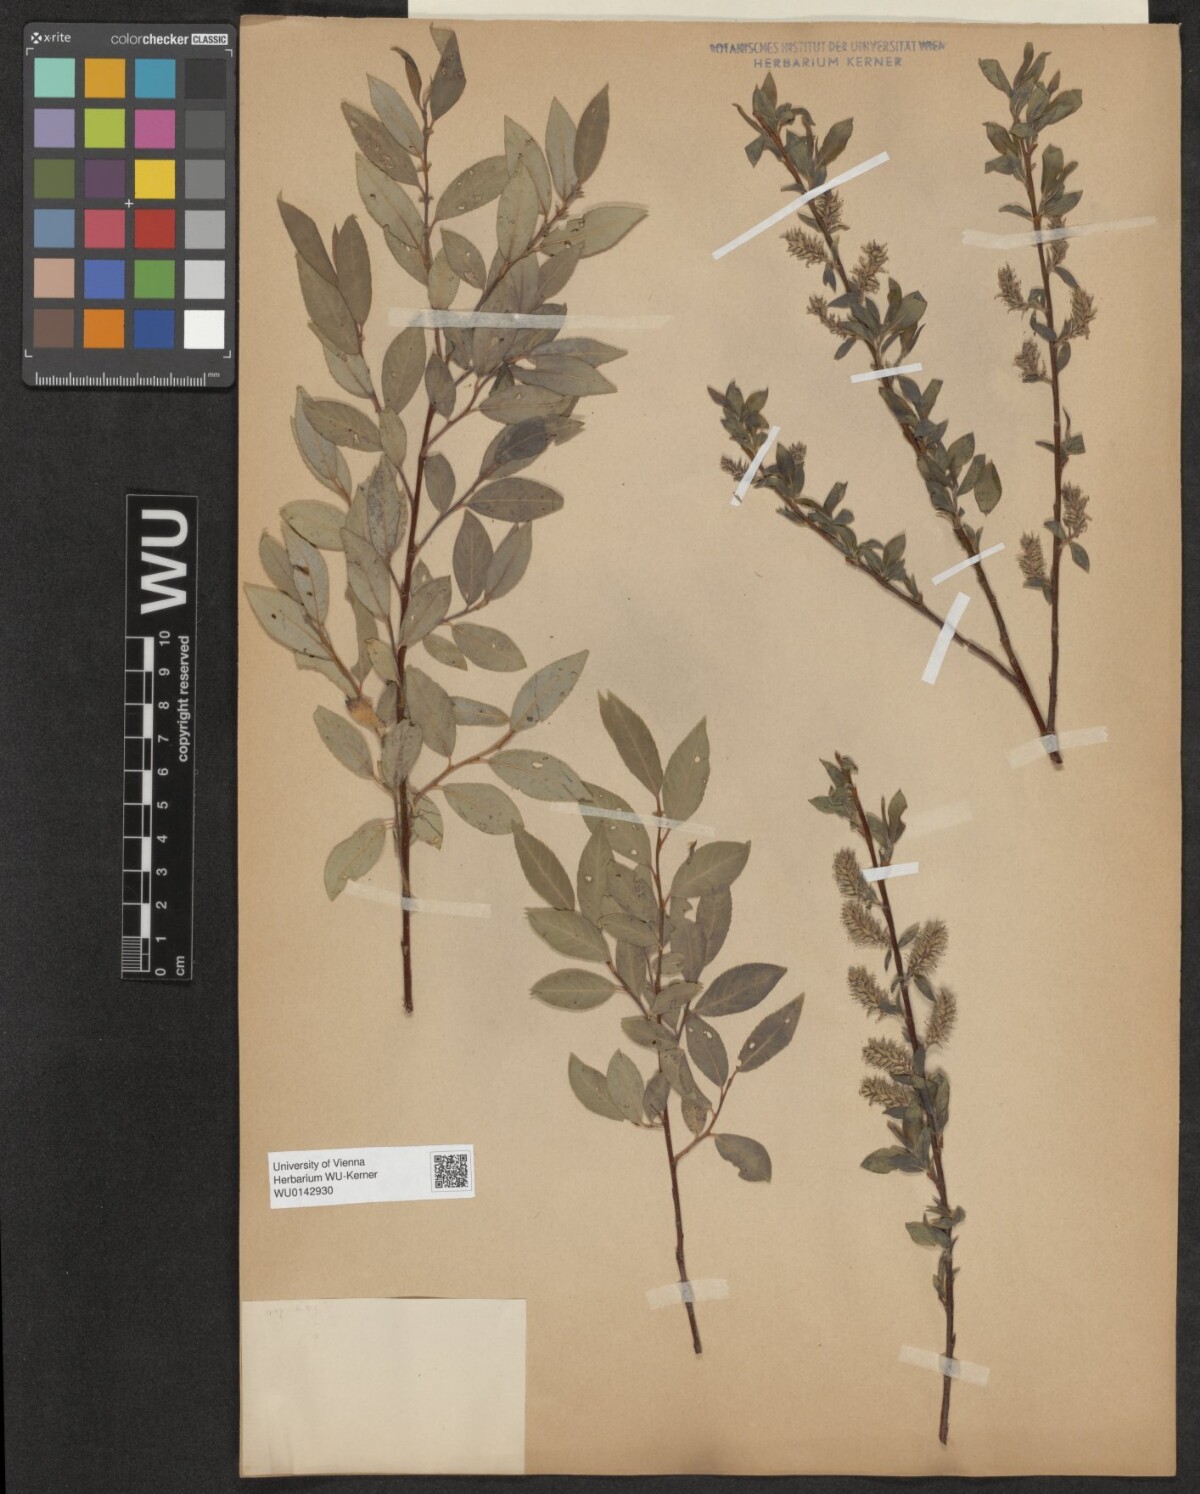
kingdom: Plantae
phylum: Tracheophyta
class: Magnoliopsida
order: Malpighiales
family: Salicaceae
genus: Salix
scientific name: Salix myrsinifolia
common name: Dark-leaved willow
